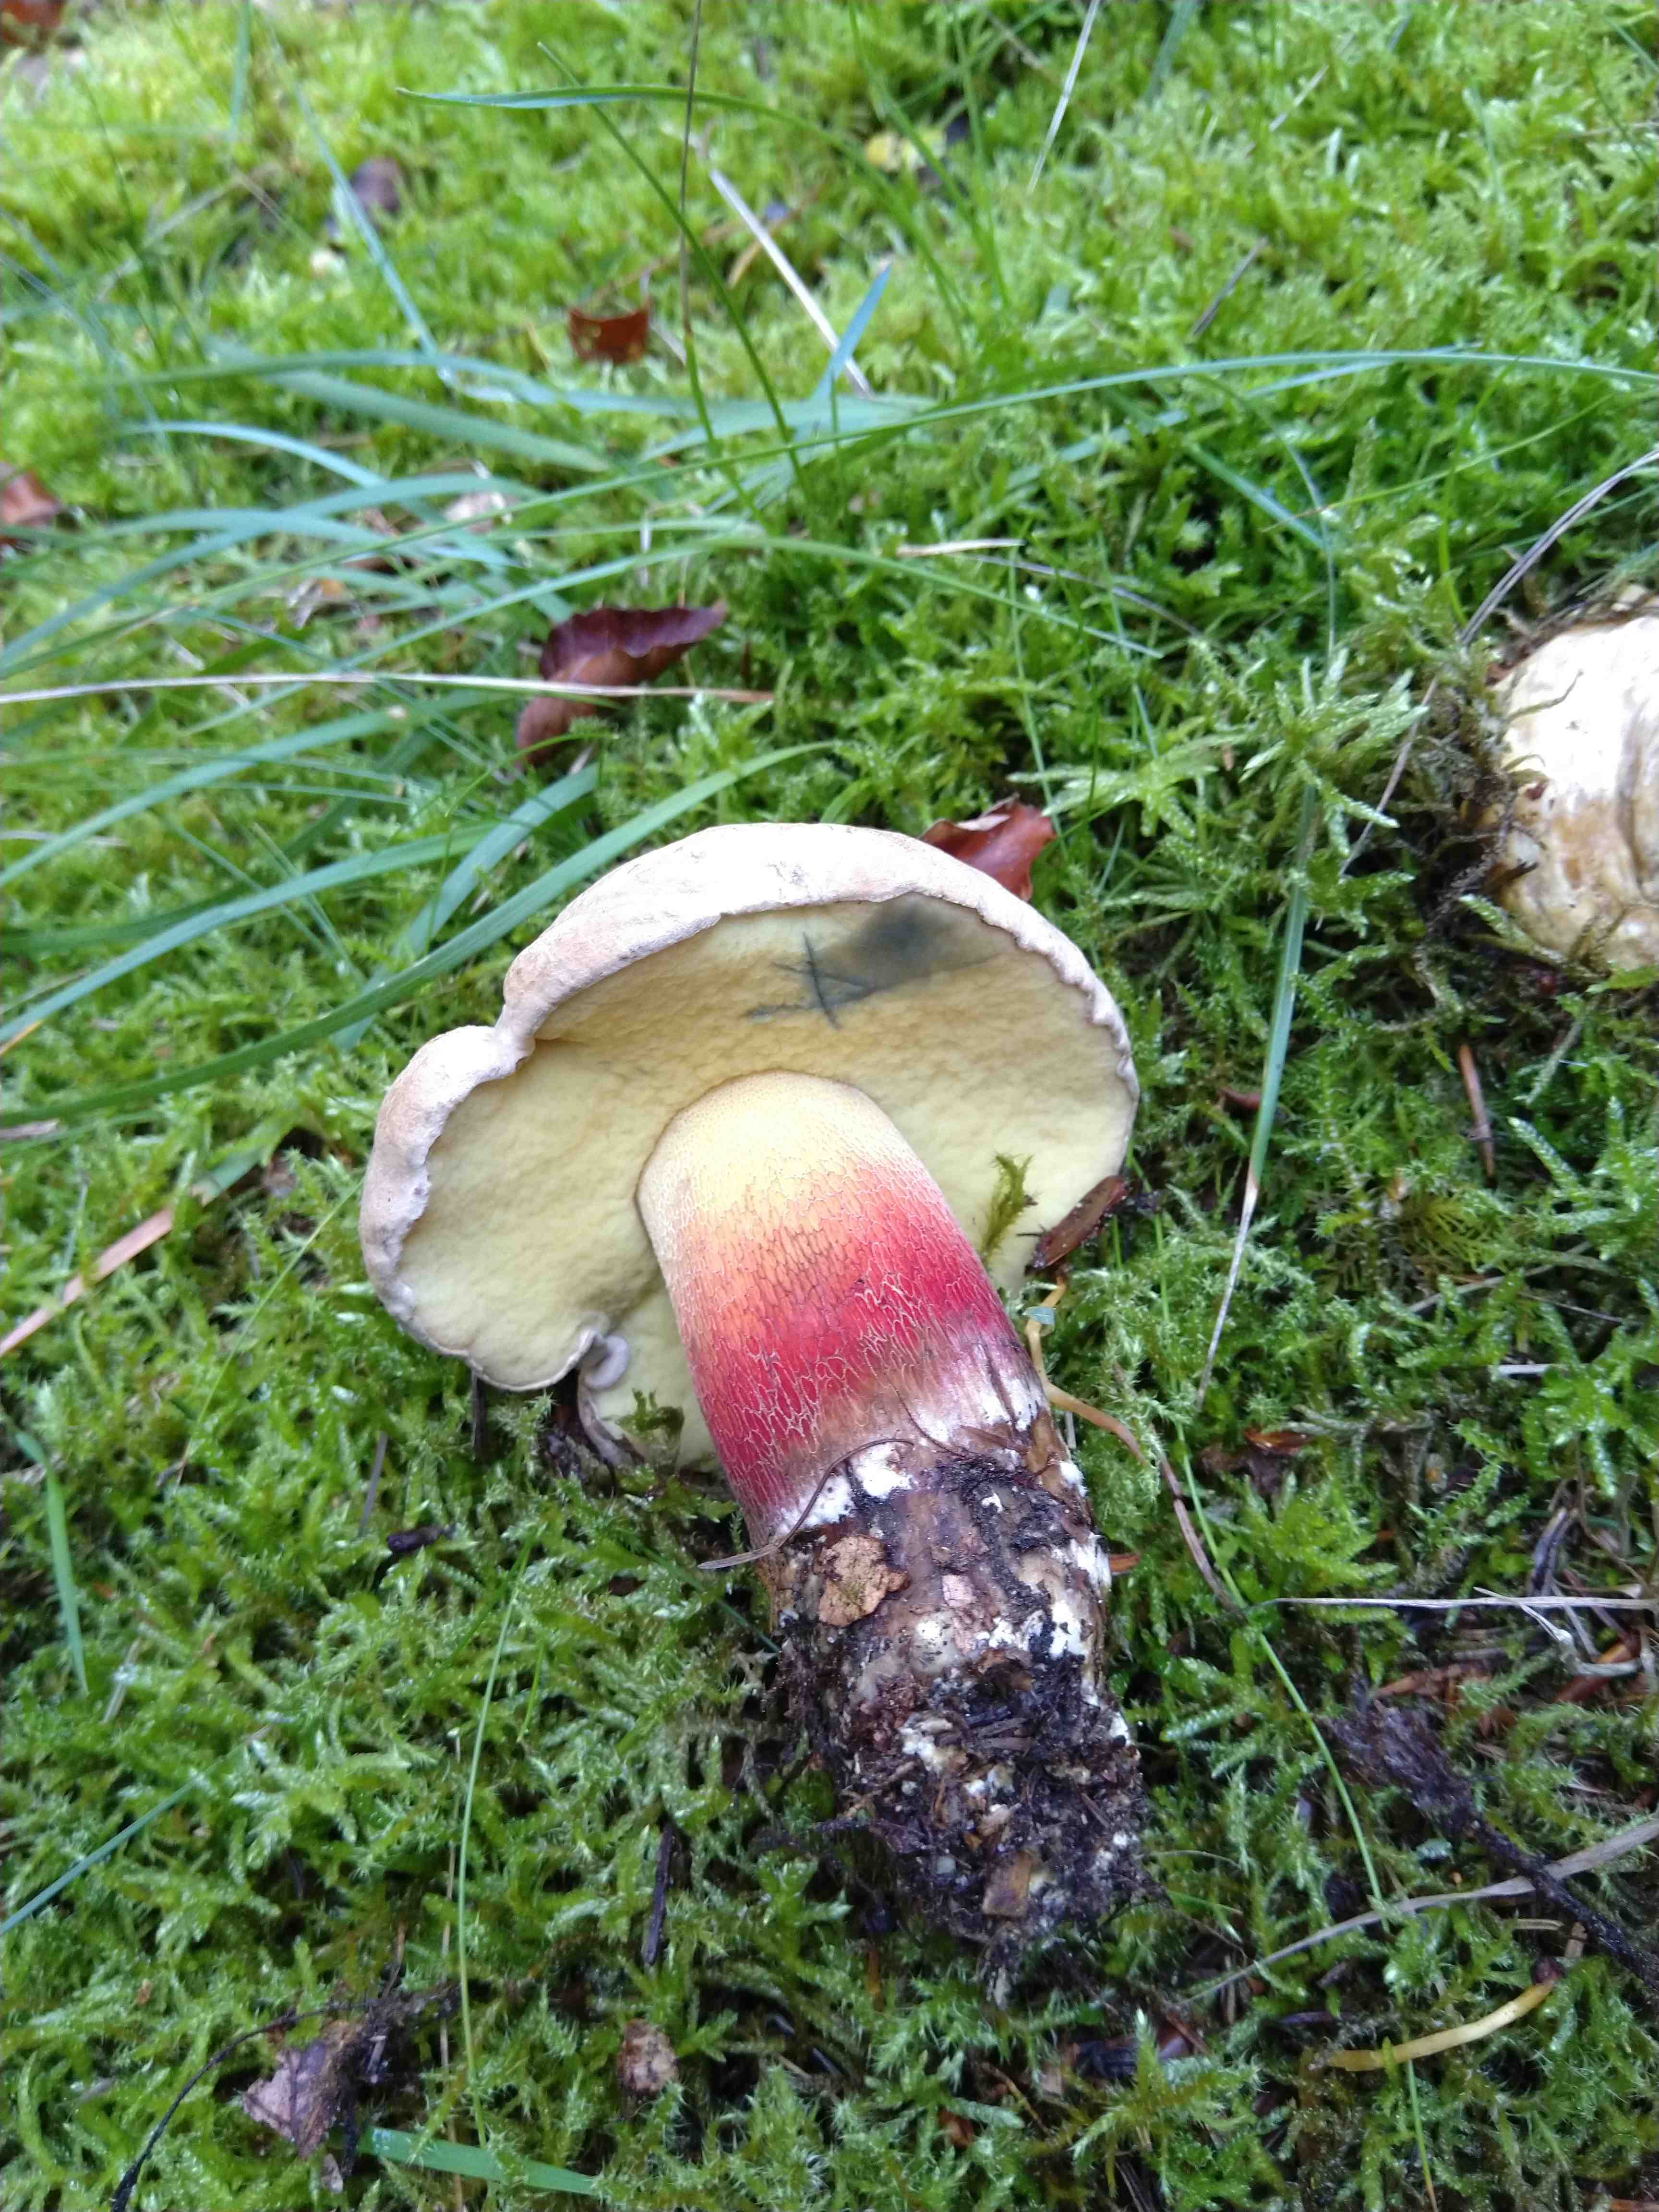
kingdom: Fungi
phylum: Basidiomycota
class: Agaricomycetes
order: Boletales
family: Boletaceae
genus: Caloboletus
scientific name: Caloboletus calopus
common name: skønfodet rørhat
